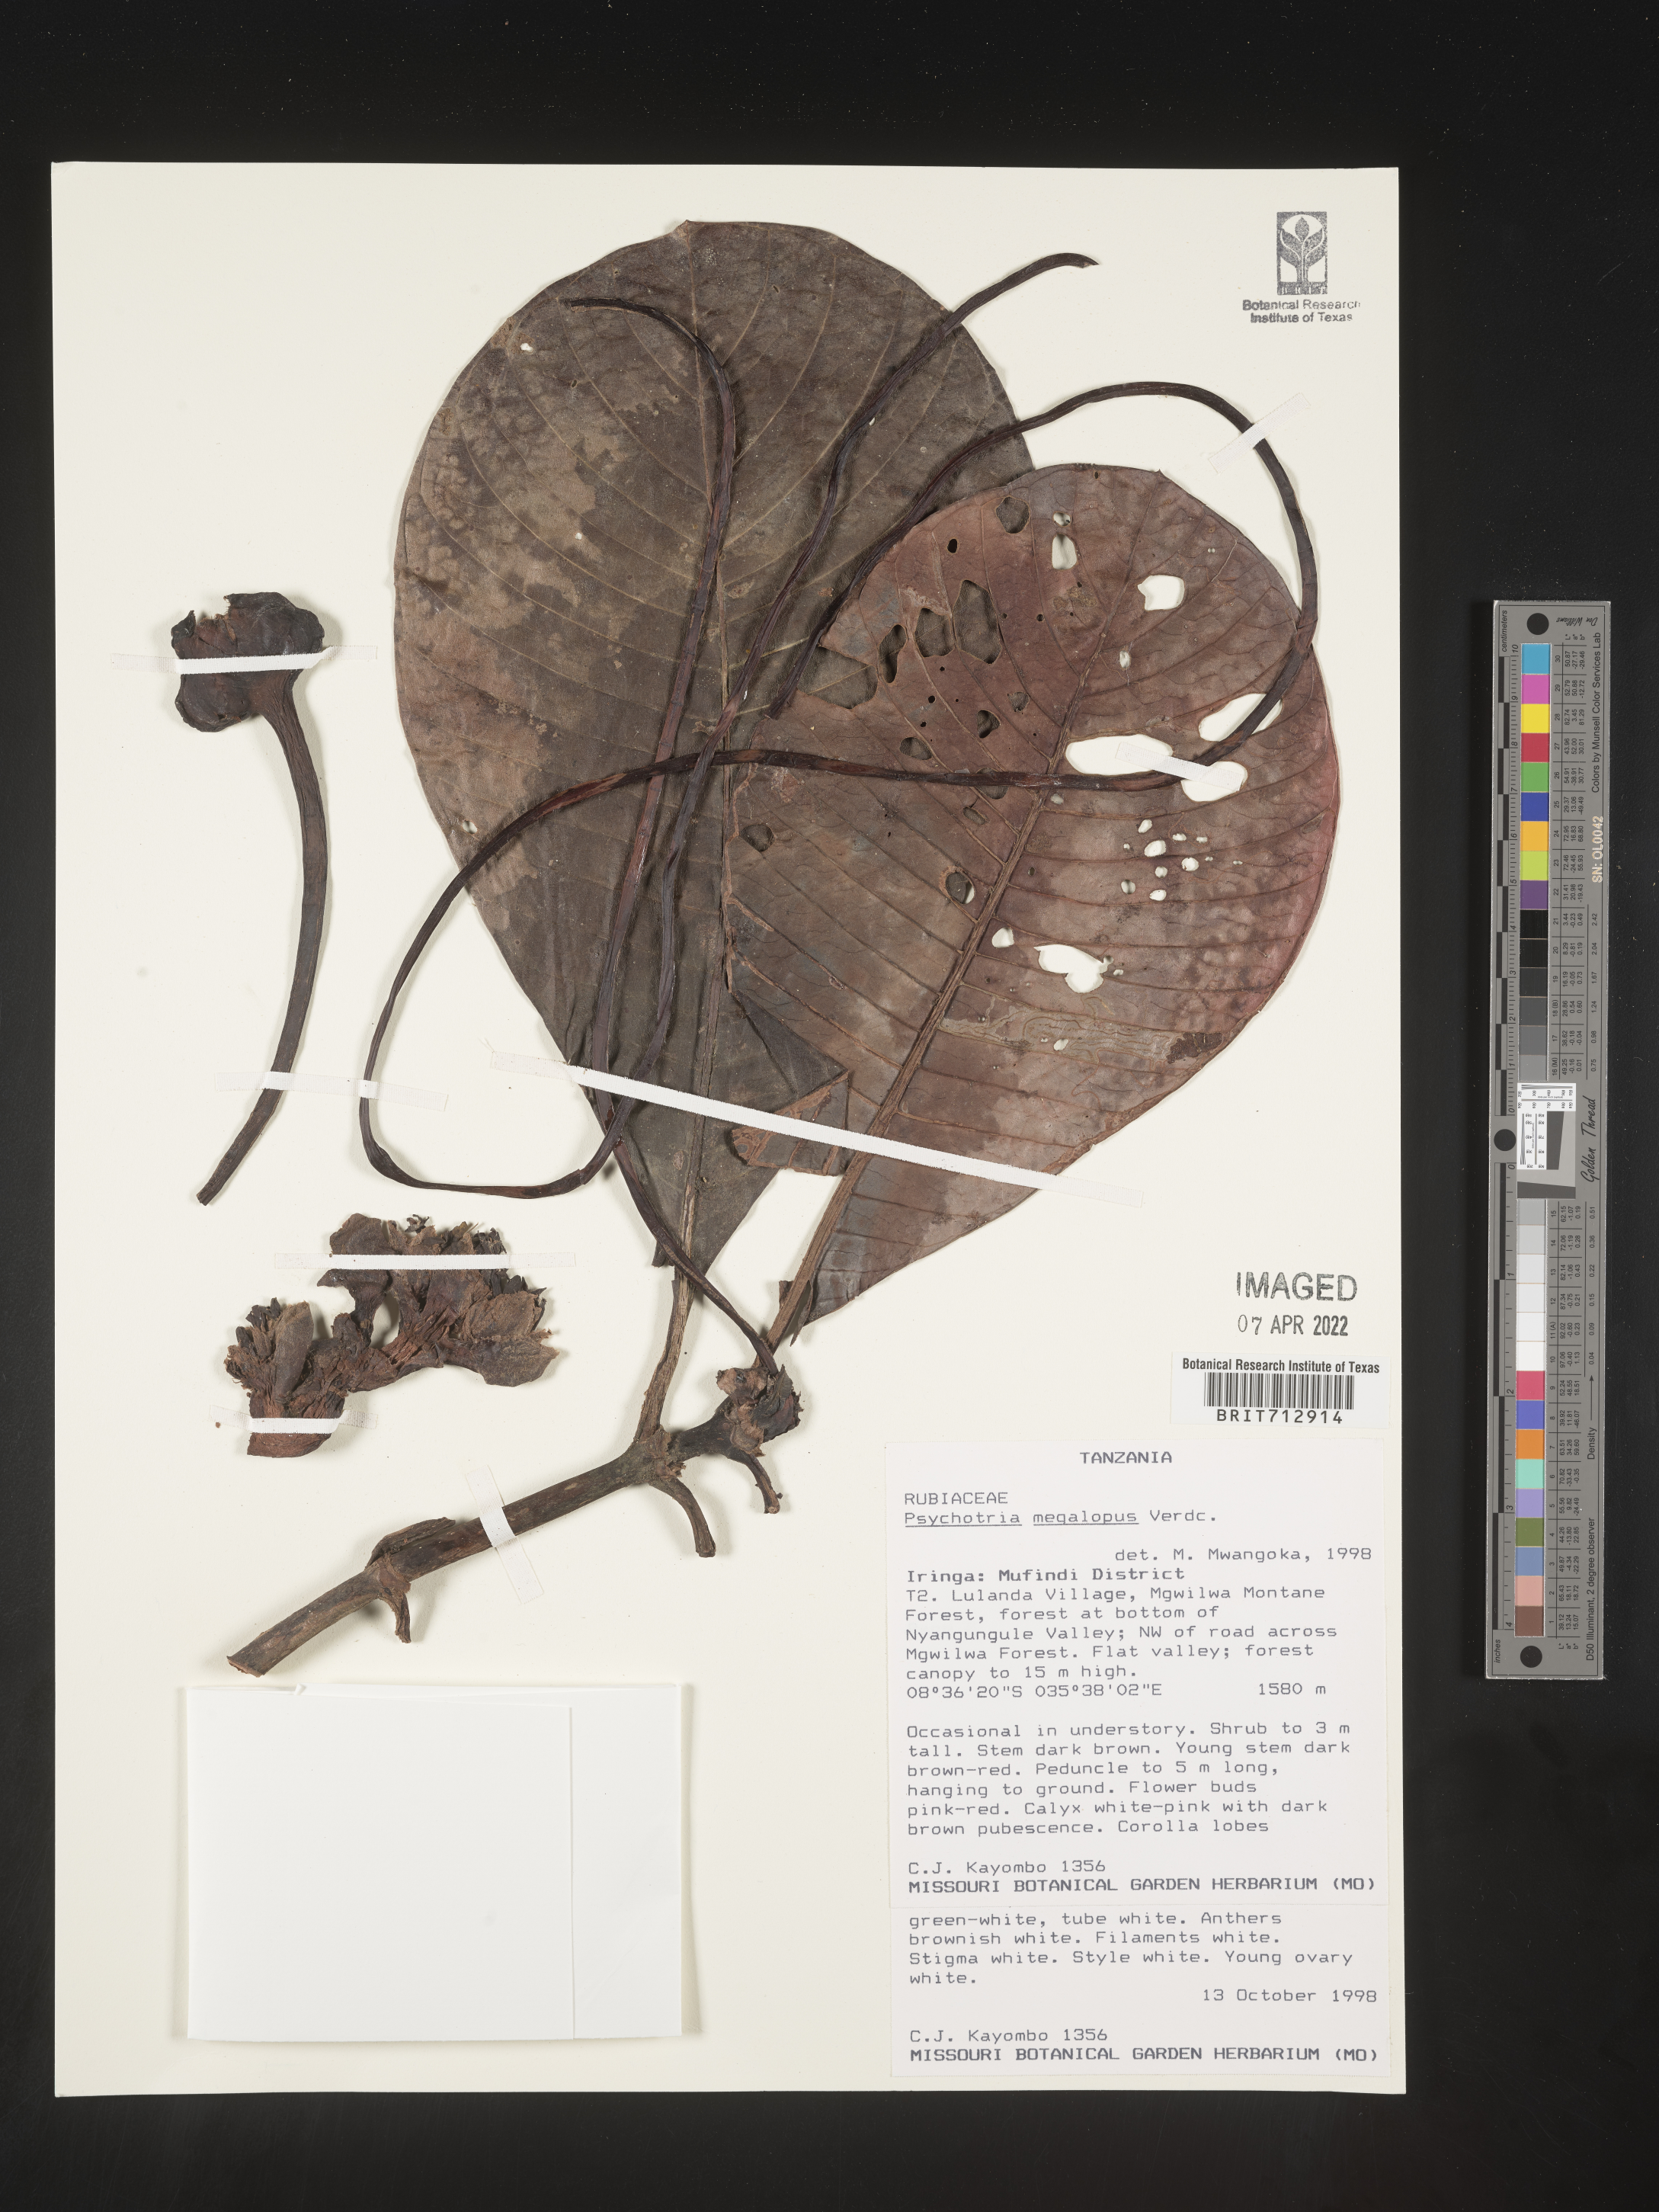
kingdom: Plantae
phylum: Tracheophyta
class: Magnoliopsida
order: Gentianales
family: Rubiaceae
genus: Psychotria
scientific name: Psychotria
